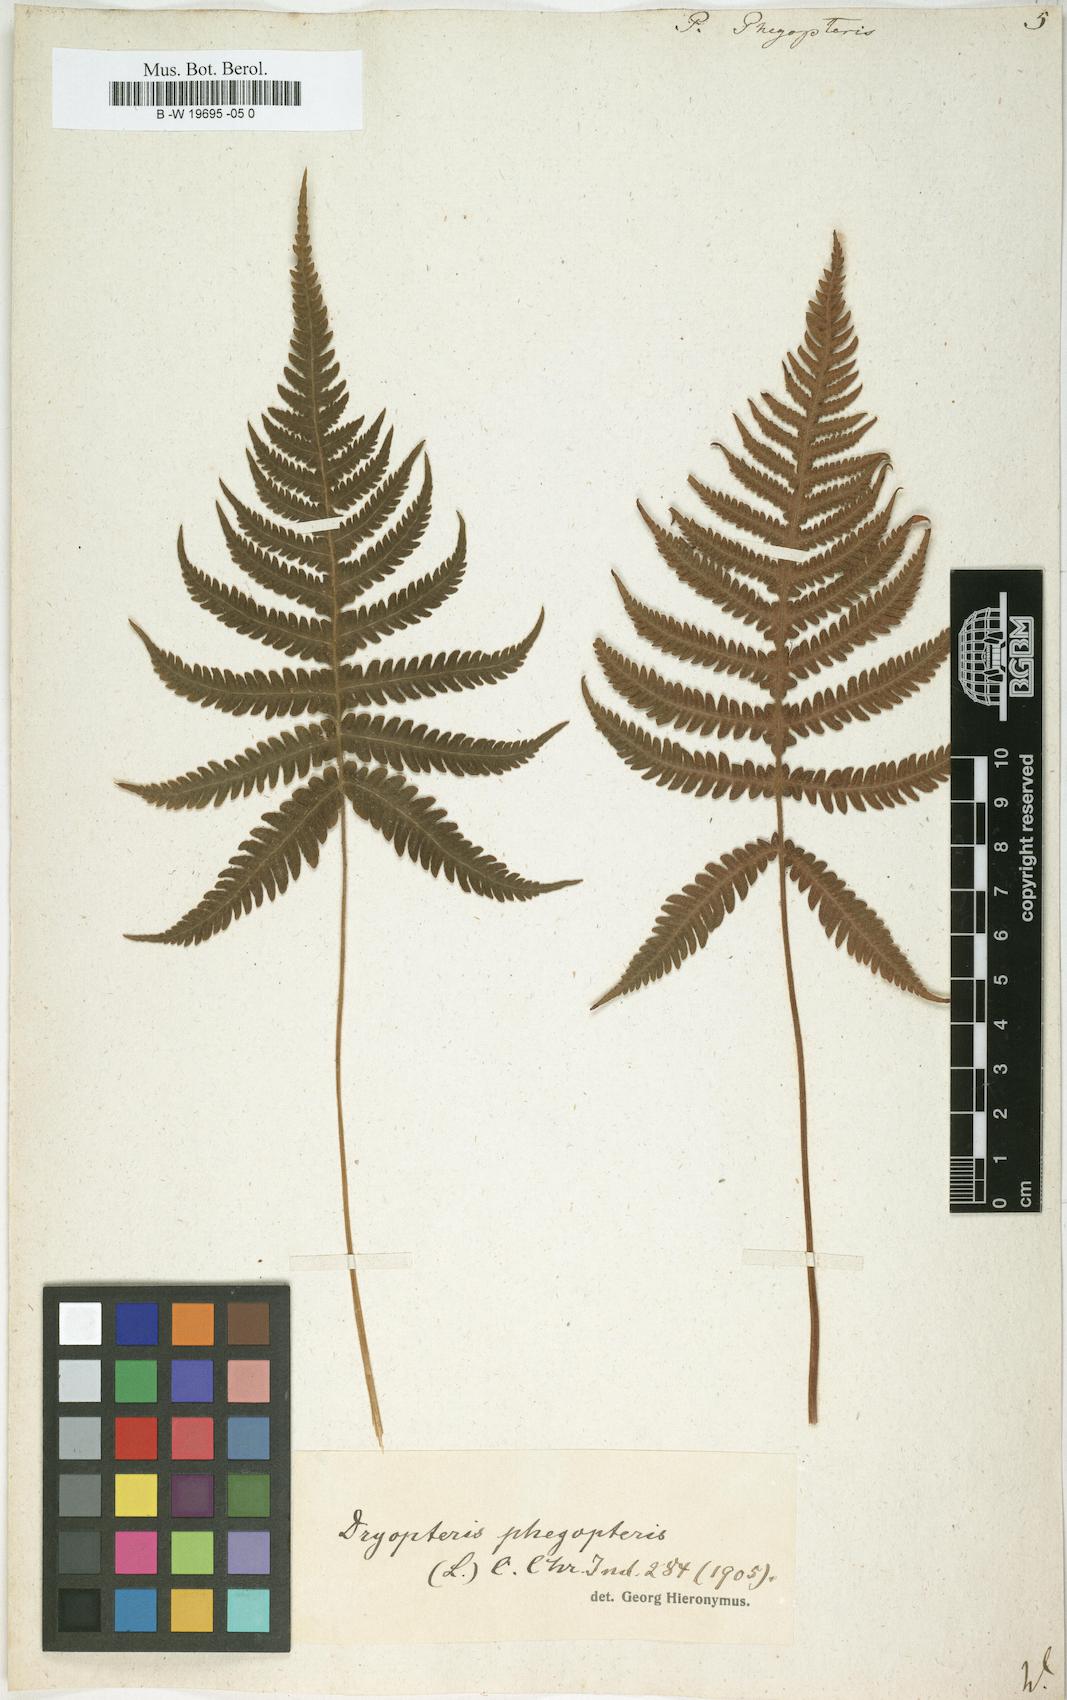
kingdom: Plantae
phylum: Tracheophyta
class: Polypodiopsida
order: Polypodiales
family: Thelypteridaceae
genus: Phegopteris
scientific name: Phegopteris connectilis
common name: Beech fern
